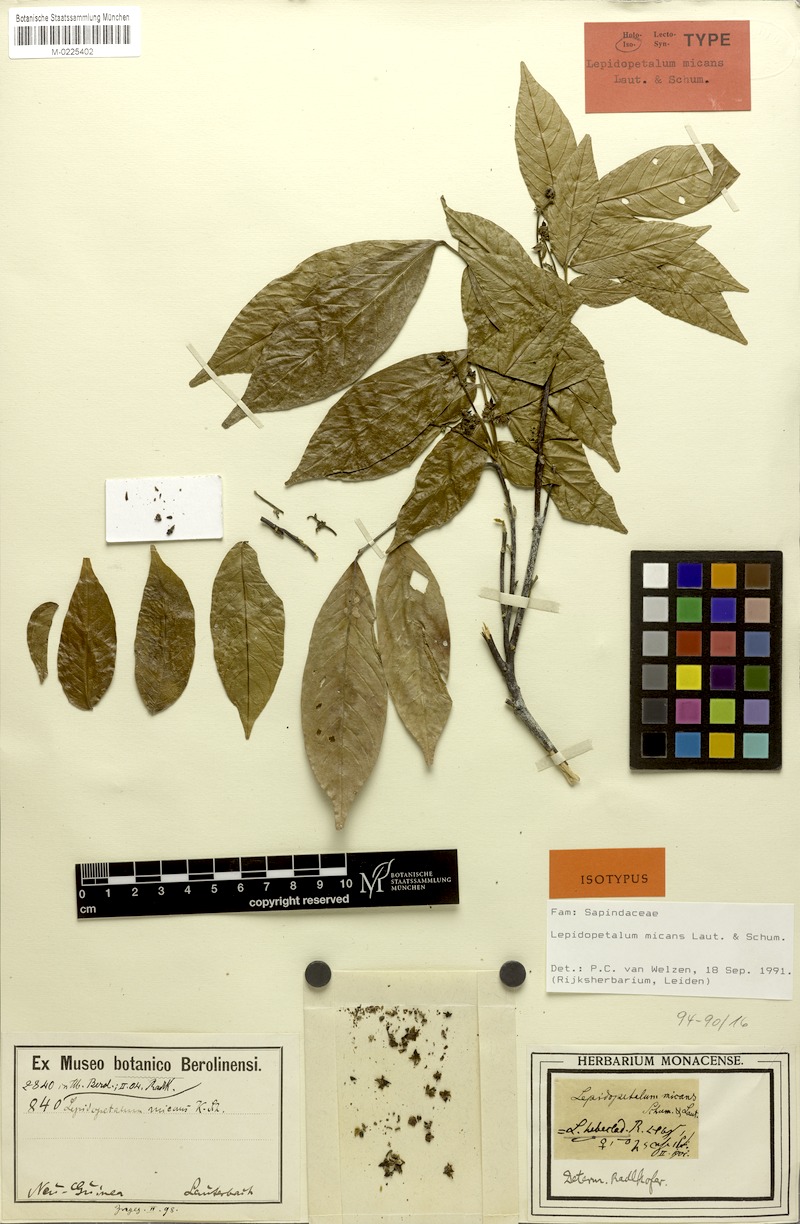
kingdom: Plantae
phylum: Tracheophyta
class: Magnoliopsida
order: Sapindales
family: Sapindaceae
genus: Lepidopetalum
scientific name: Lepidopetalum micans
